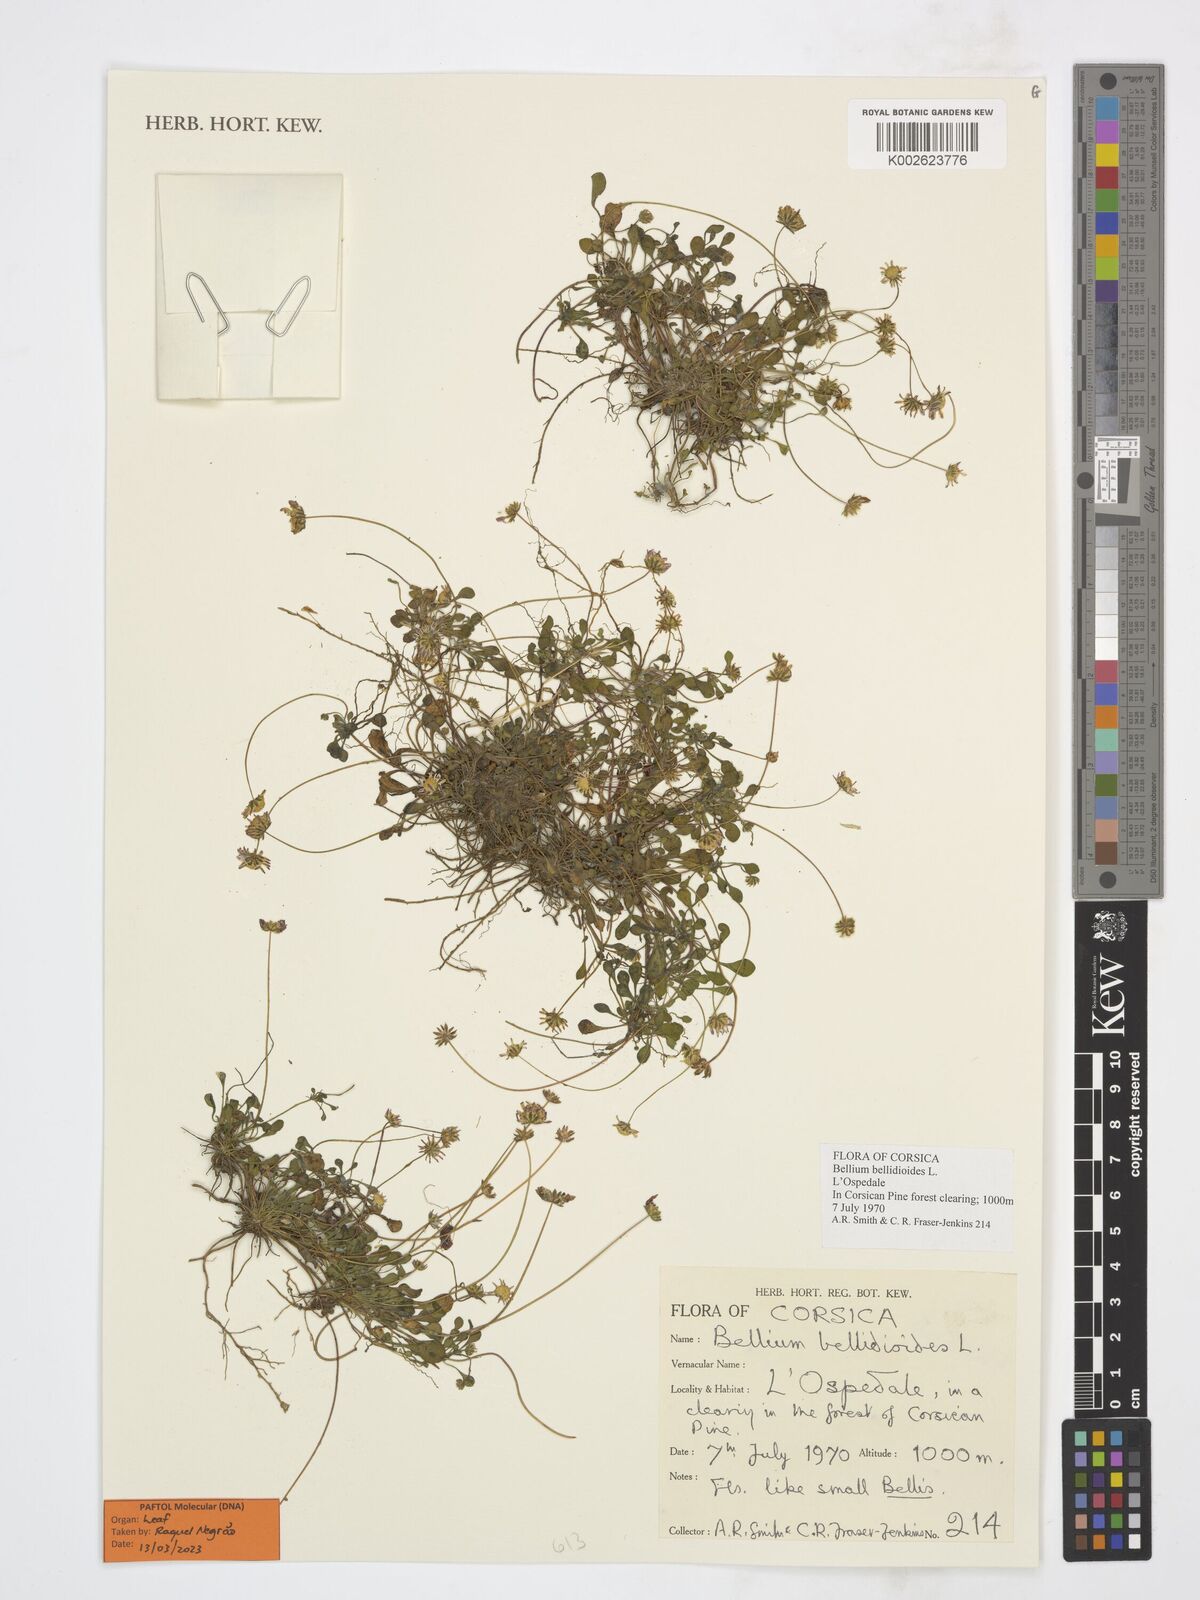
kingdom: Plantae
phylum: Tracheophyta
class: Magnoliopsida
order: Asterales
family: Asteraceae
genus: Bellium
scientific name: Bellium bellidioides
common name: False daisy
